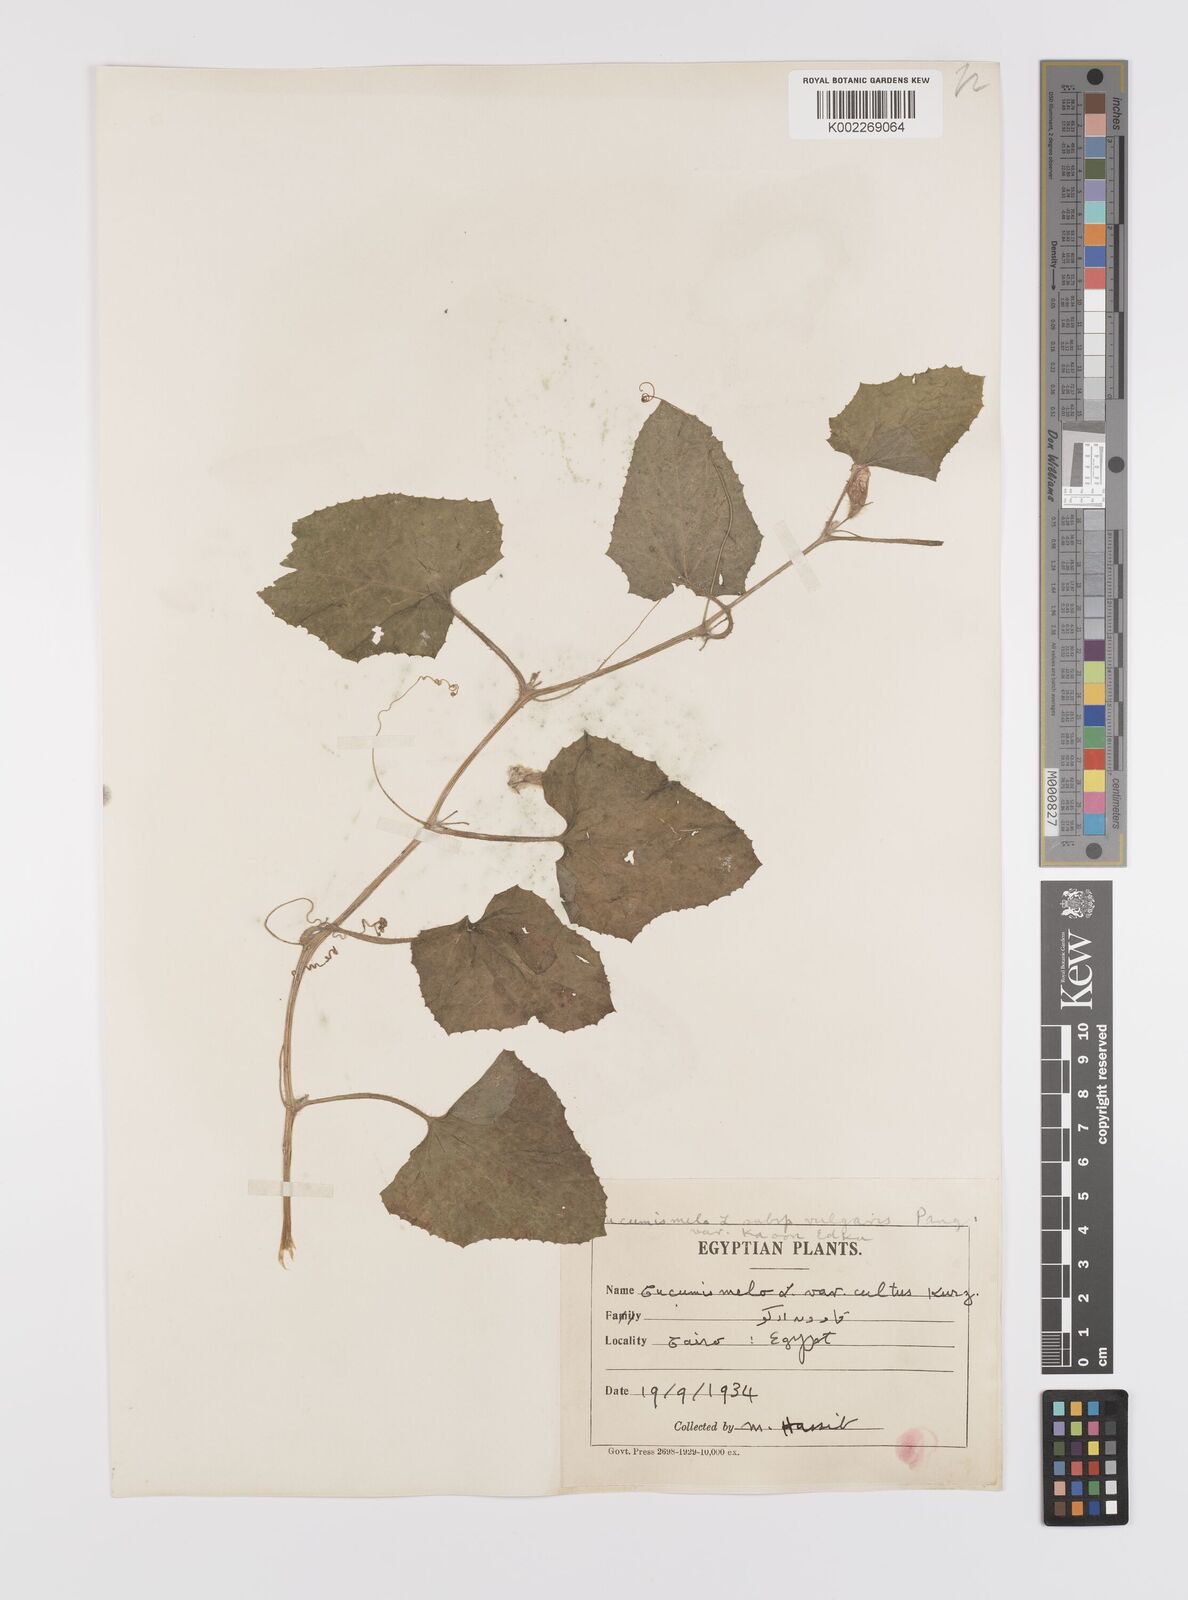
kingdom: Plantae
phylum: Tracheophyta
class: Magnoliopsida
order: Cucurbitales
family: Cucurbitaceae
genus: Cucumis
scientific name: Cucumis melo
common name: Melon
